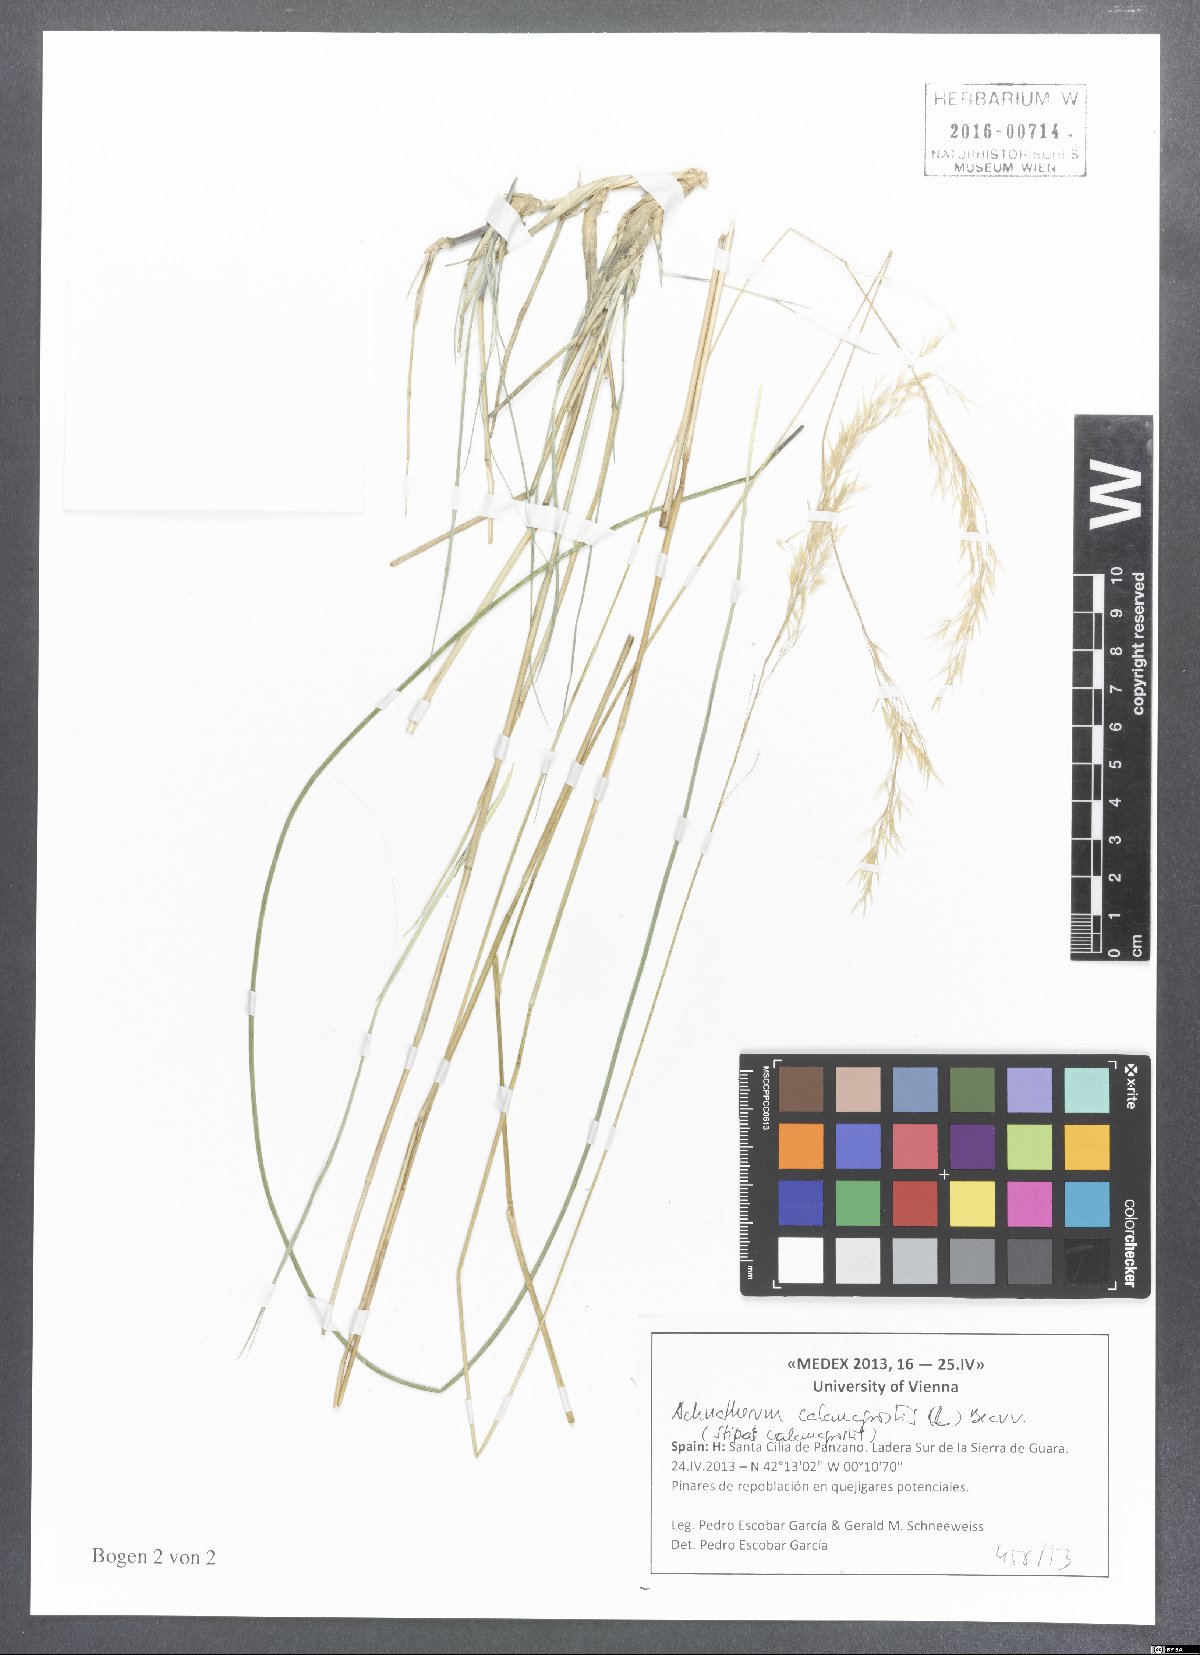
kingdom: Plantae
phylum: Tracheophyta
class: Liliopsida
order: Poales
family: Poaceae
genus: Achnatherum
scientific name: Achnatherum calamagrostis
